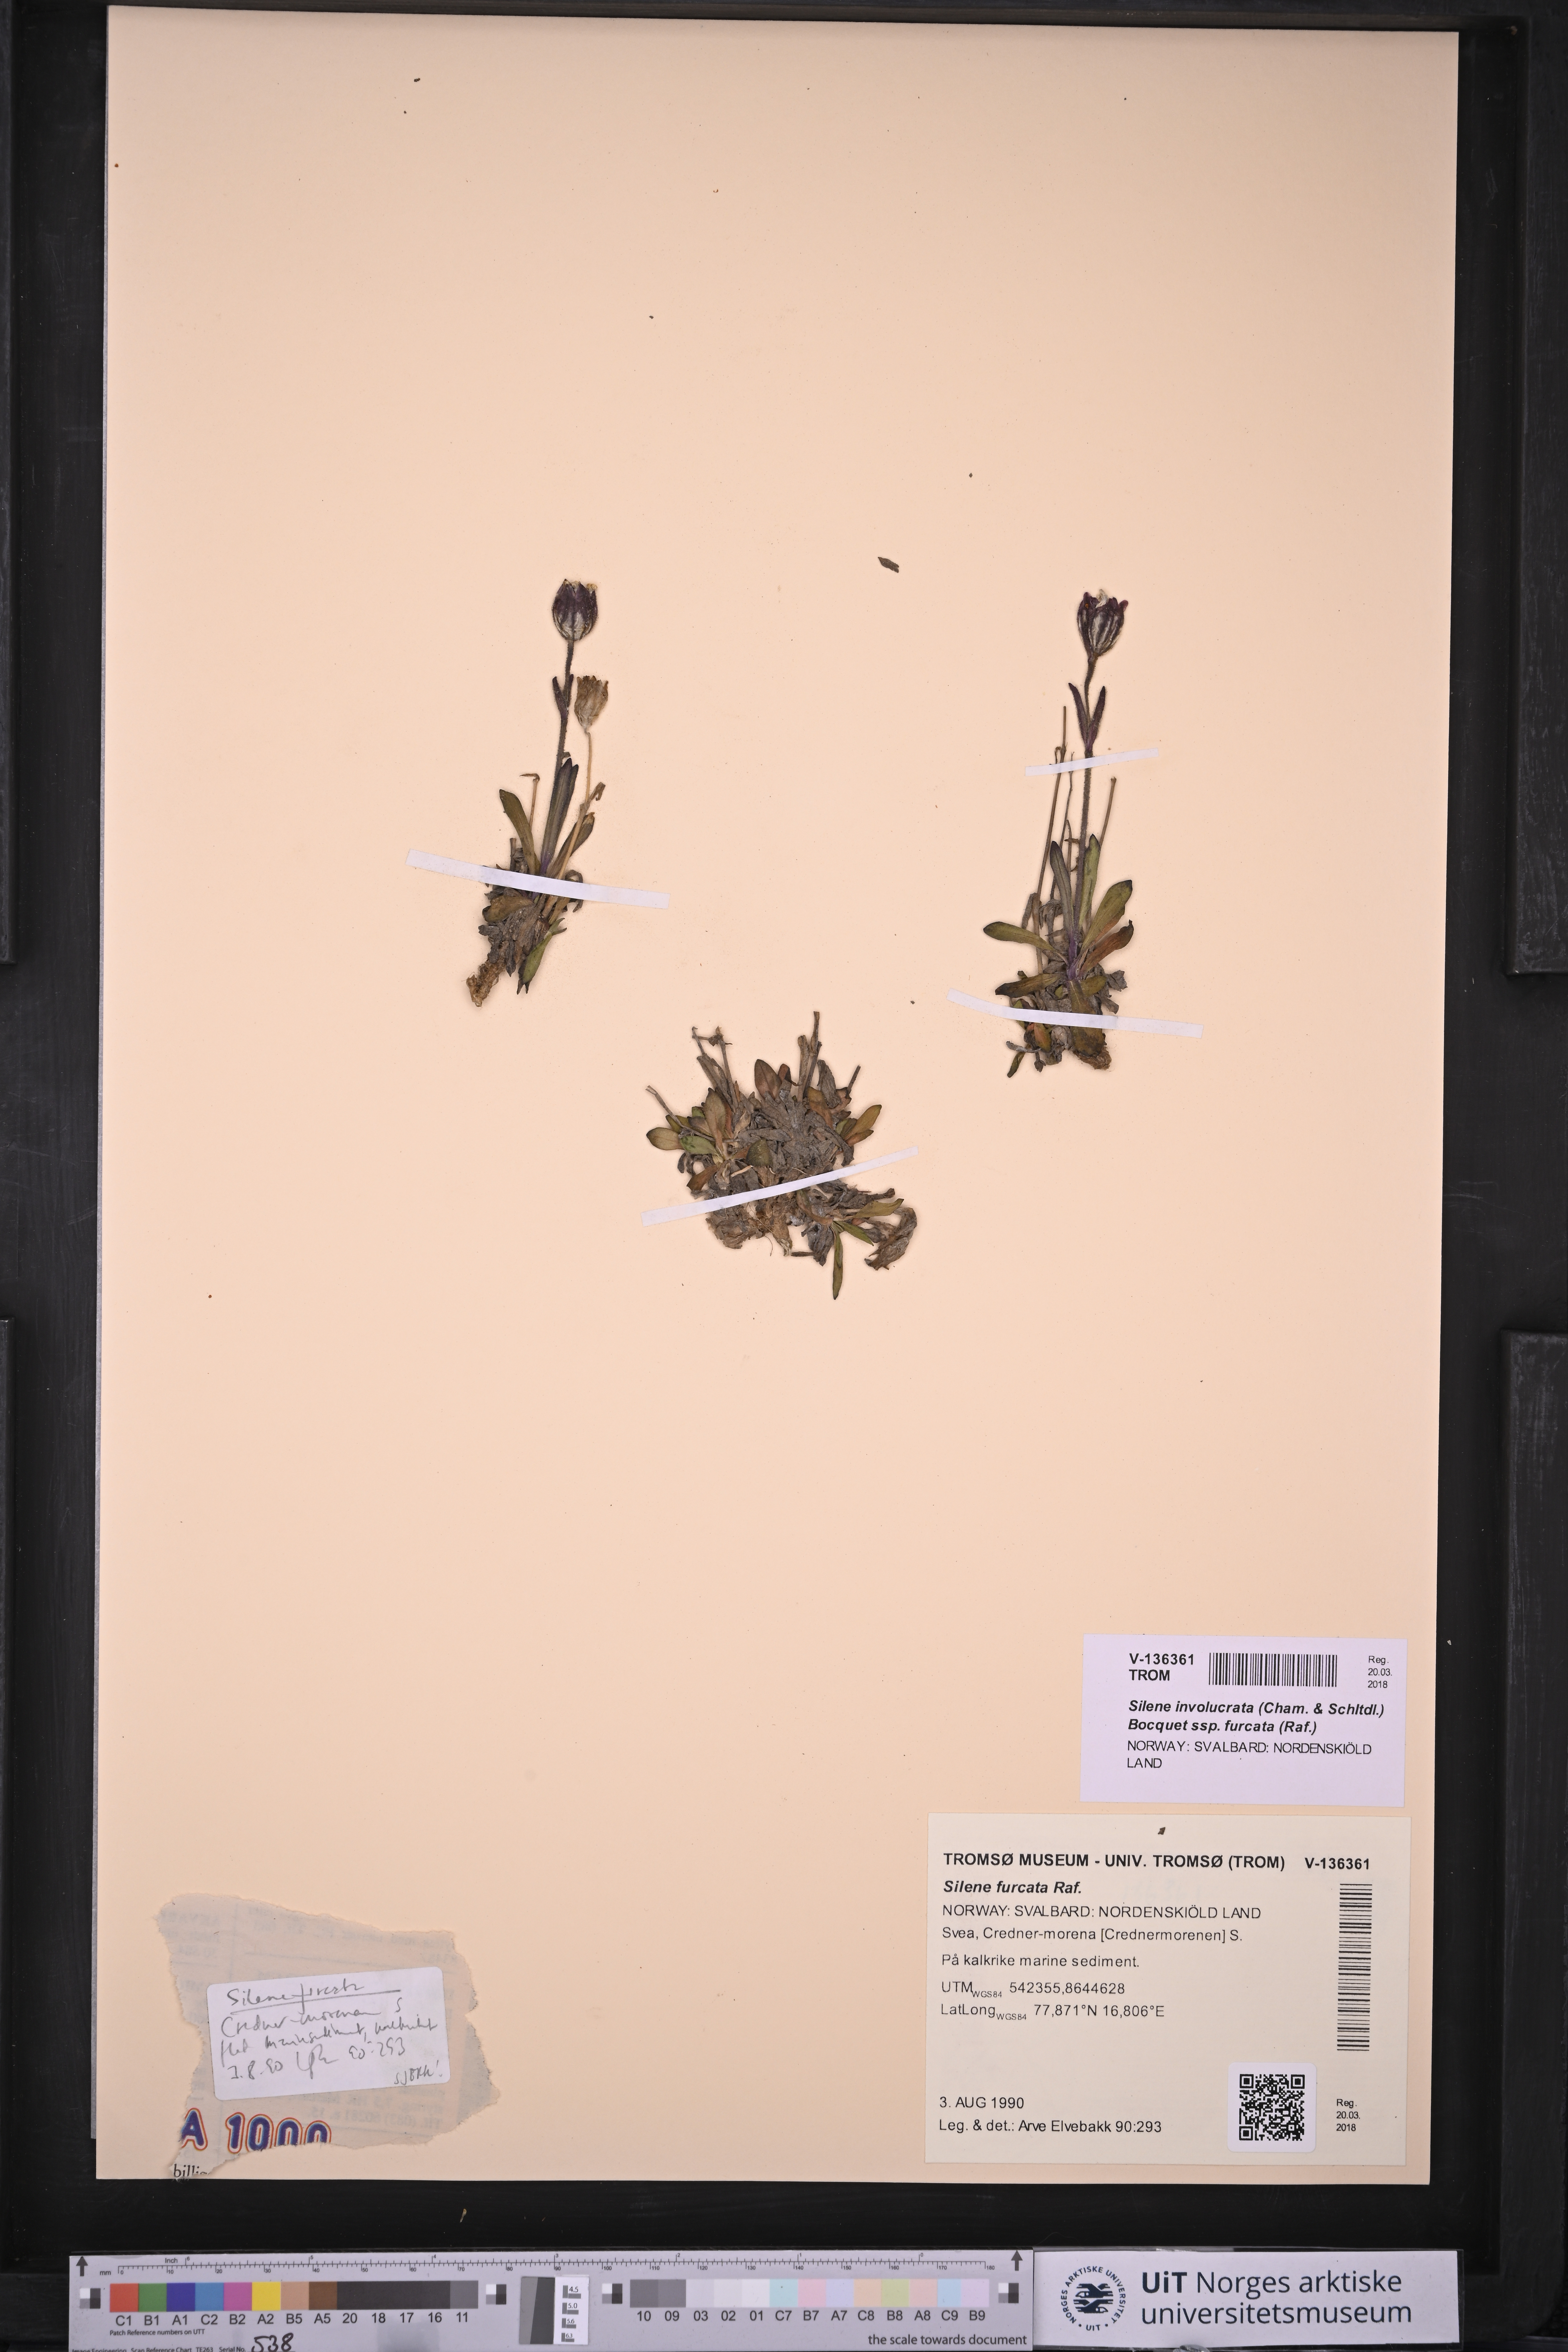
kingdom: Plantae
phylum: Tracheophyta
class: Magnoliopsida
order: Caryophyllales
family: Caryophyllaceae
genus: Silene
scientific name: Silene involucrata
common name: Greater arctic campion
